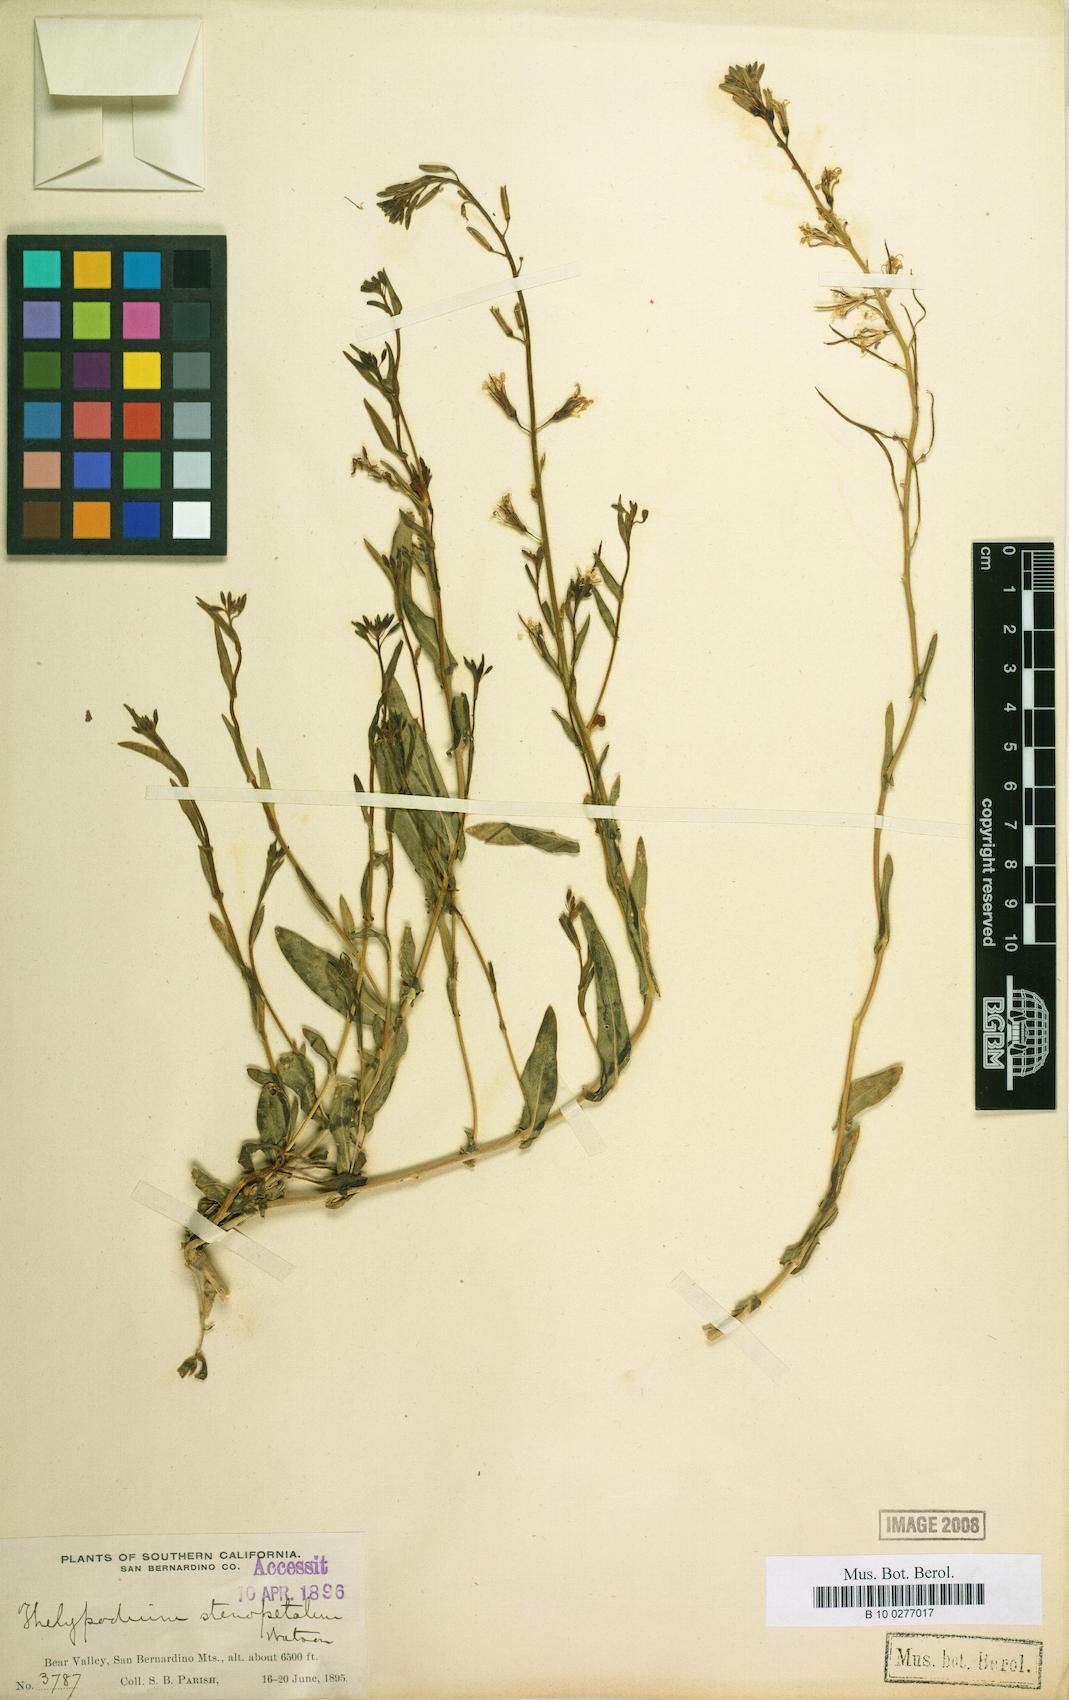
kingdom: Plantae
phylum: Tracheophyta
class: Magnoliopsida
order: Brassicales
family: Brassicaceae
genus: Thelypodium
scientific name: Thelypodium stenopetalum
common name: Slender-petal mustard
